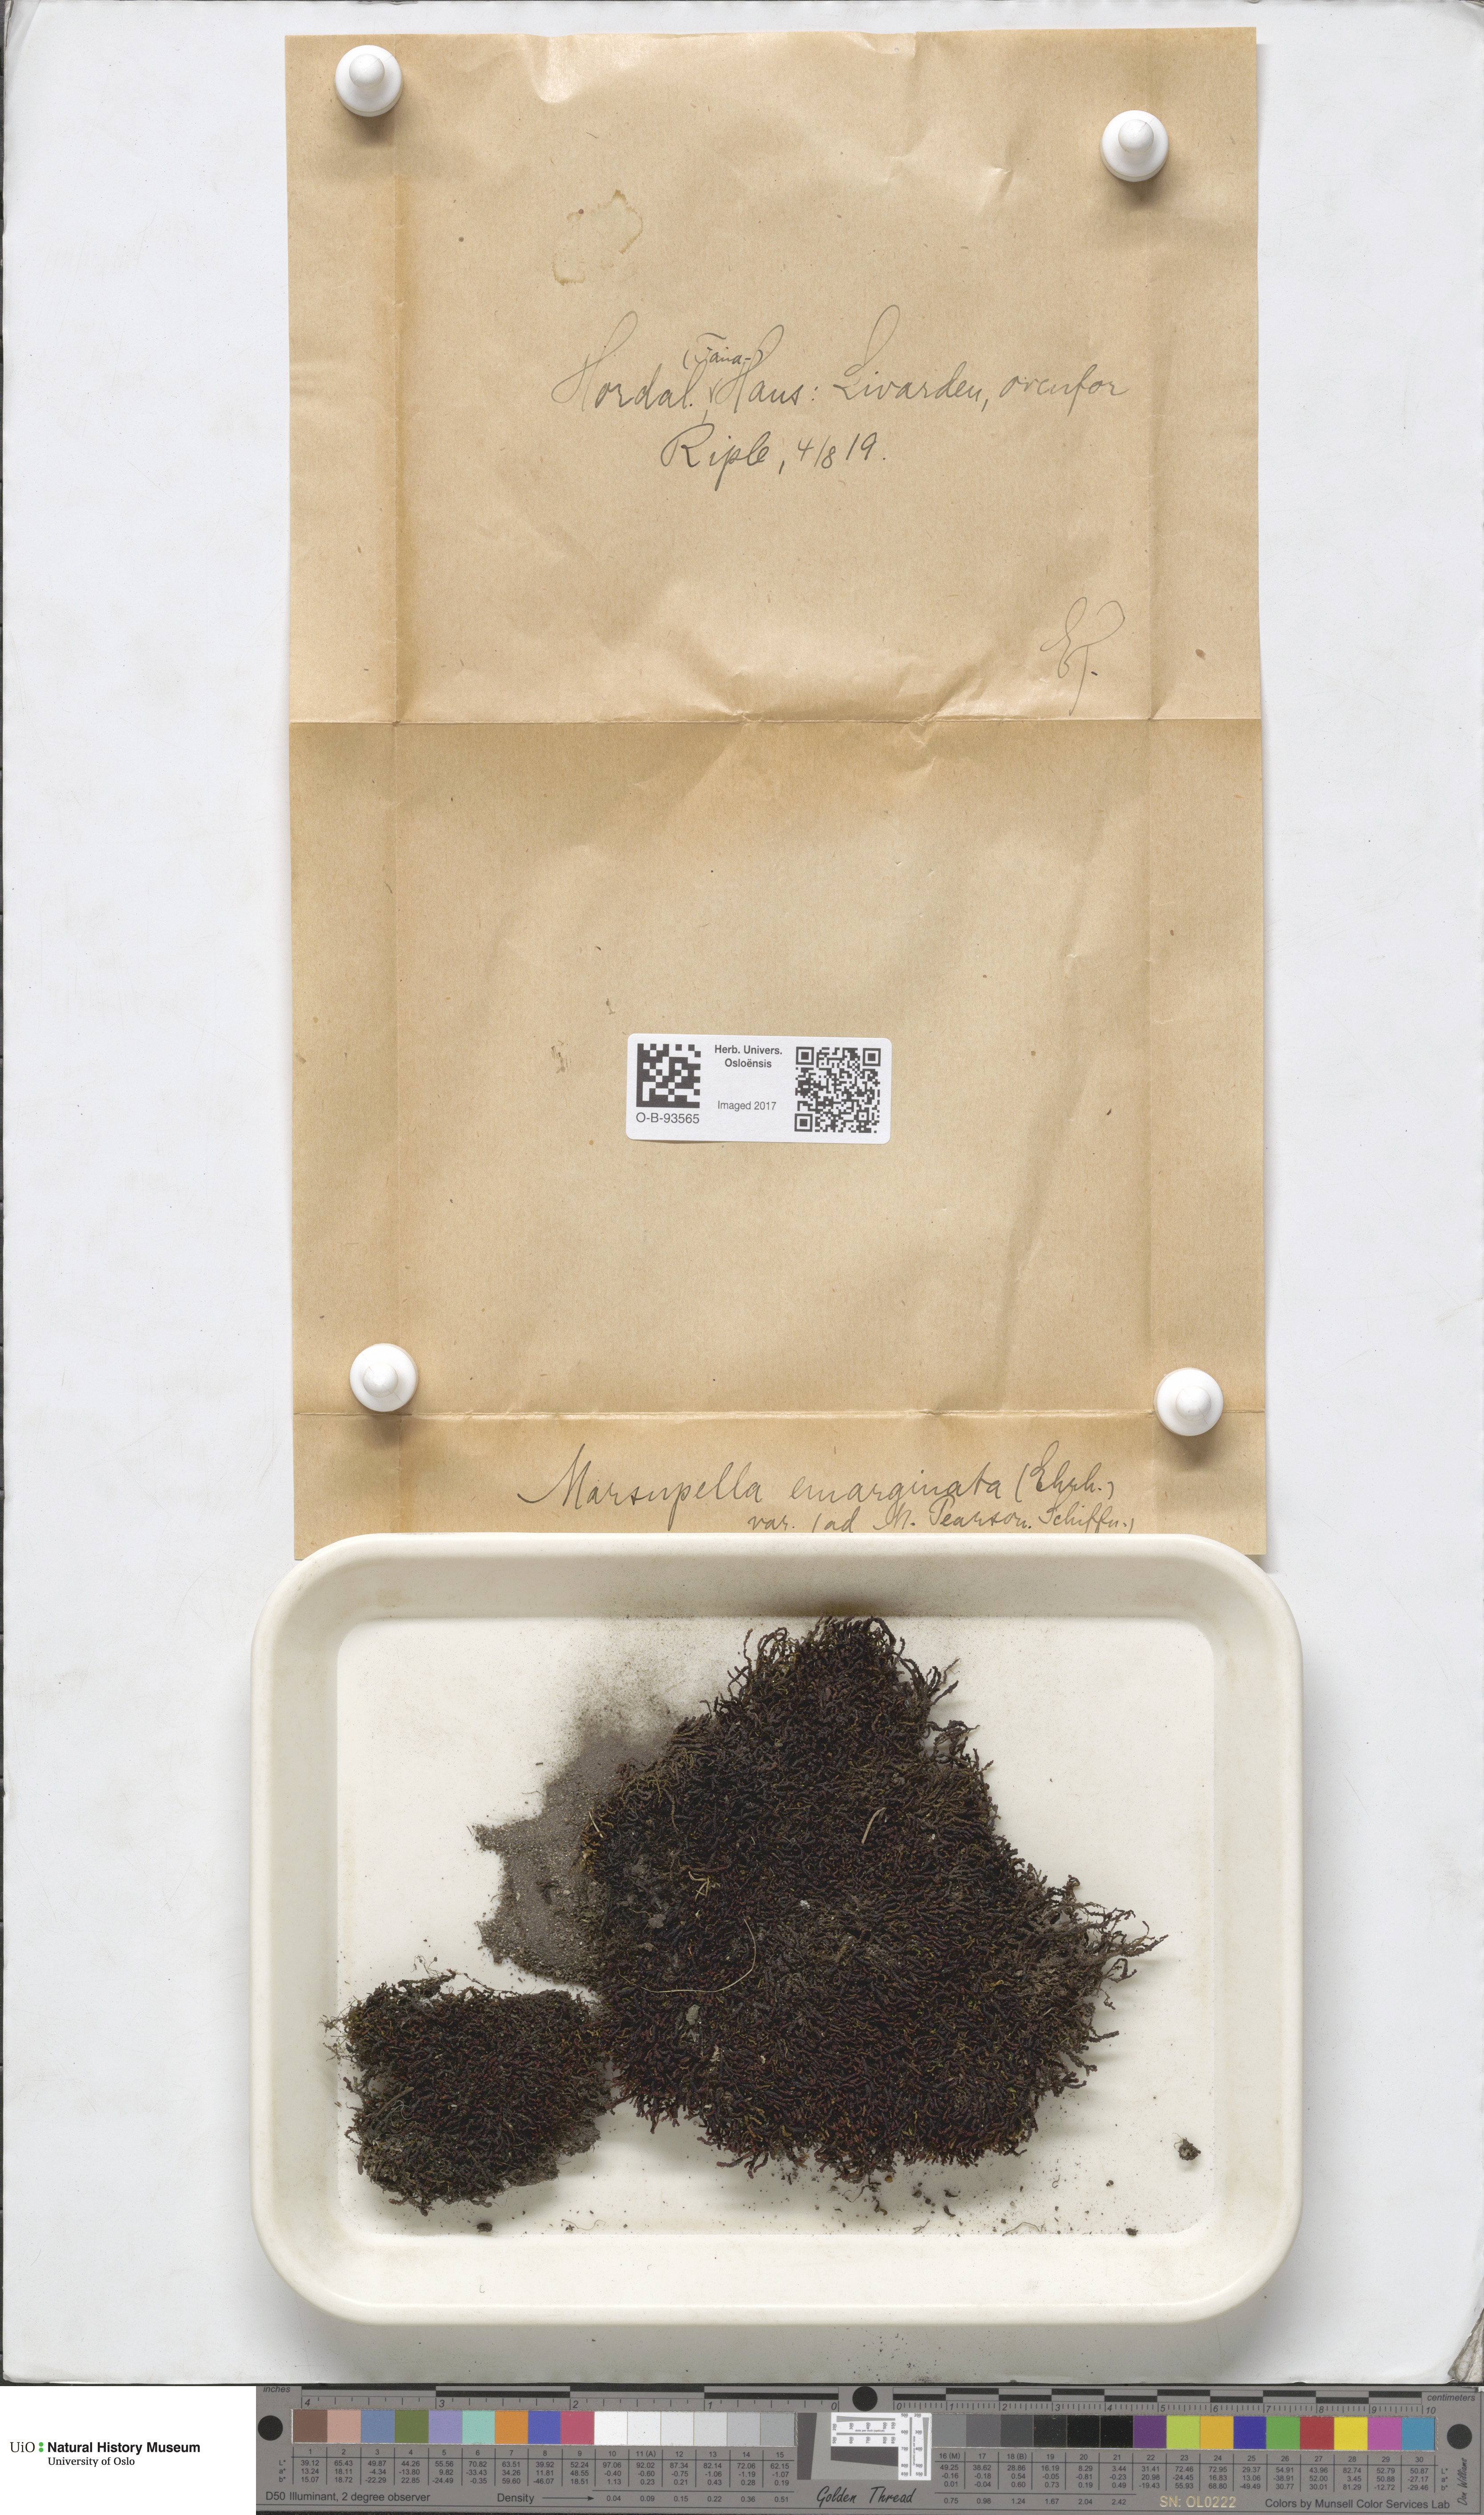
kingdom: Plantae
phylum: Marchantiophyta
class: Jungermanniopsida
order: Jungermanniales
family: Gymnomitriaceae
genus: Marsupella
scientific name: Marsupella emarginata
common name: Notched rustwort
